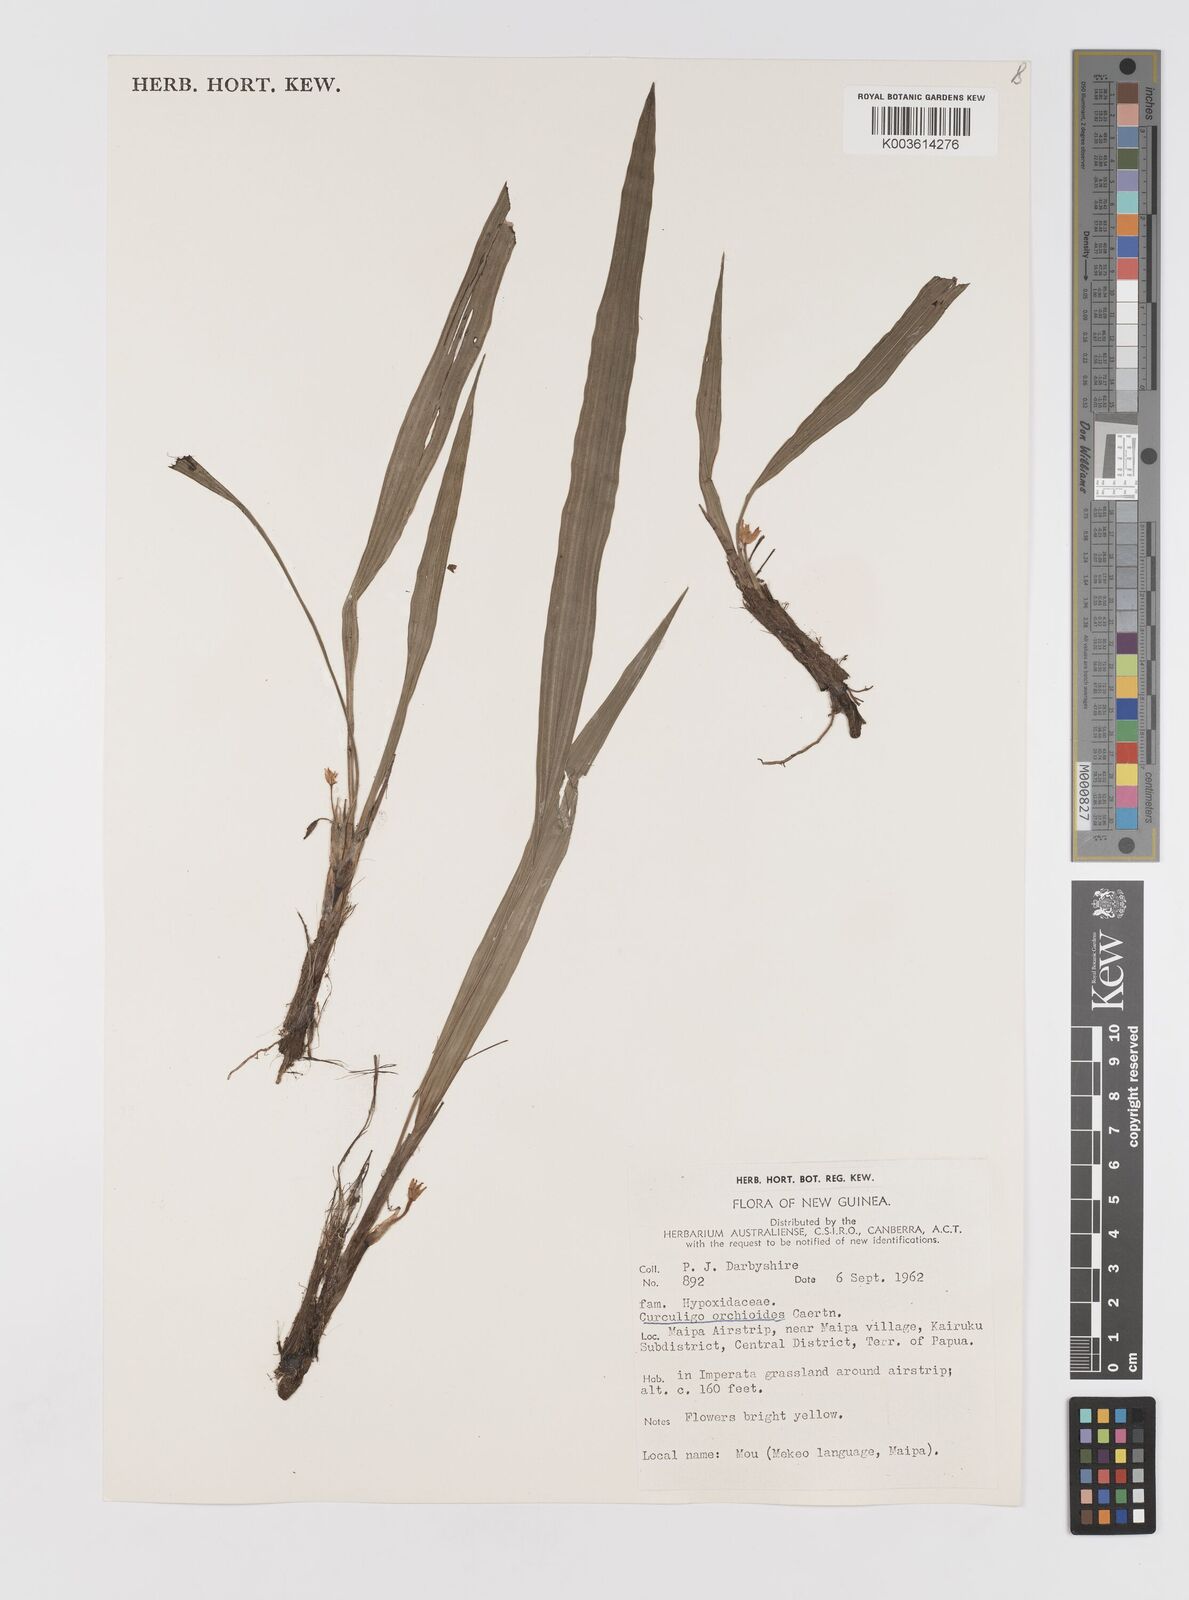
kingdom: Plantae
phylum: Tracheophyta
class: Liliopsida
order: Asparagales
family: Hypoxidaceae
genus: Curculigo
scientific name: Curculigo orchioides
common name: Golden eye-grass
